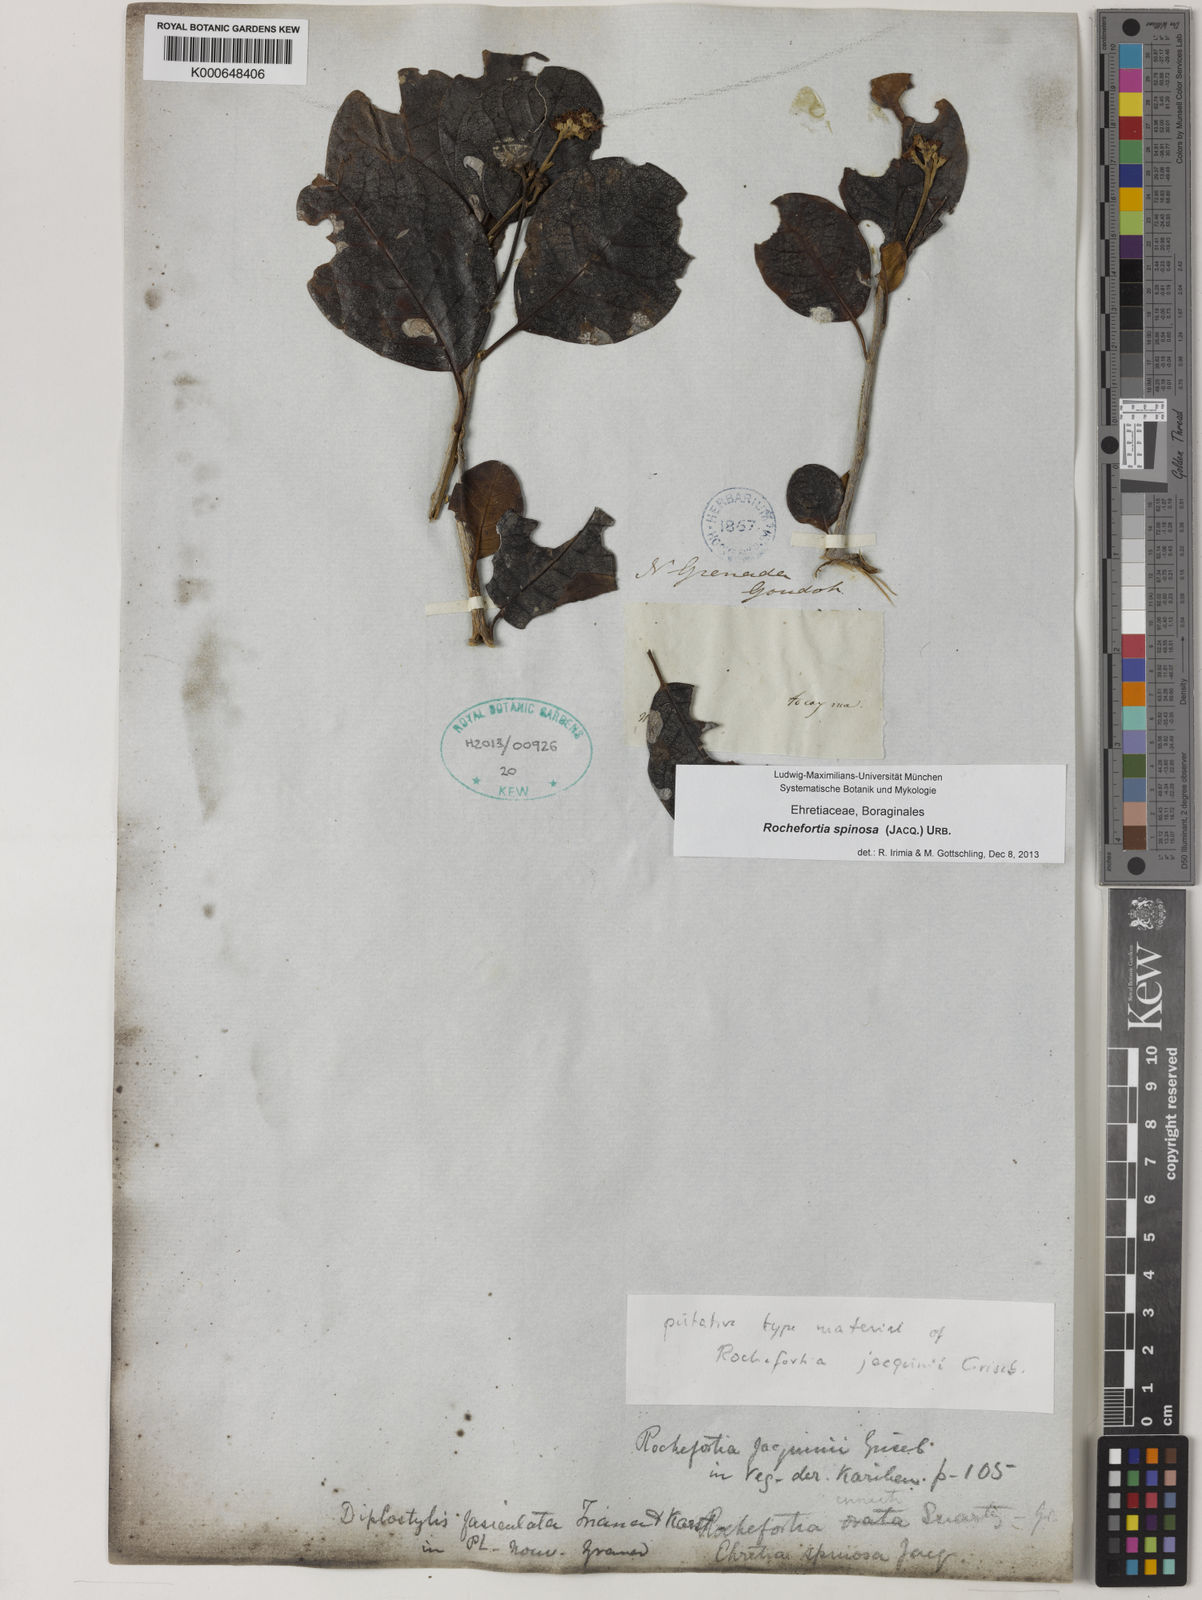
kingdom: Plantae
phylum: Tracheophyta
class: Magnoliopsida
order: Boraginales
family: Ehretiaceae
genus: Rochefortia
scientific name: Rochefortia spinosa
